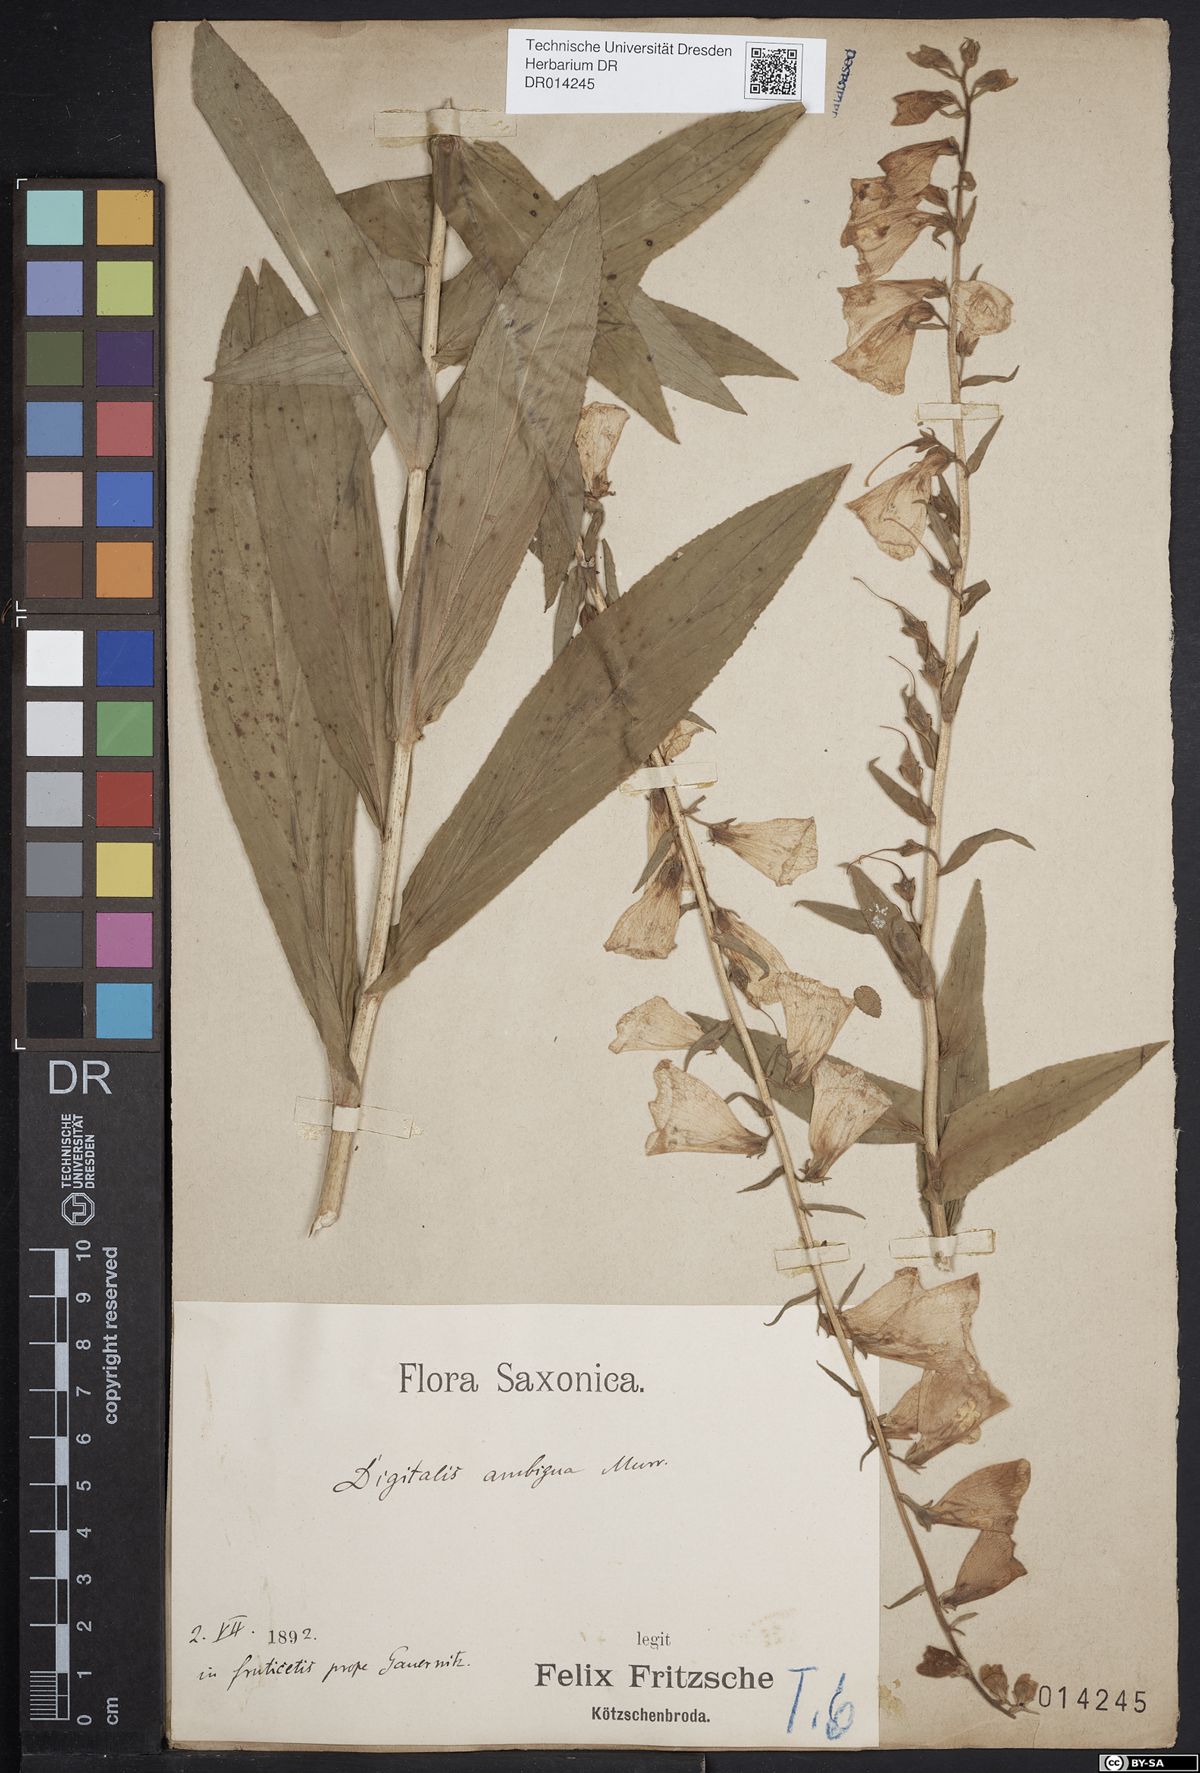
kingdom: Plantae
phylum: Tracheophyta
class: Magnoliopsida
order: Lamiales
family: Plantaginaceae
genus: Digitalis
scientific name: Digitalis grandiflora
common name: Yellow foxglove
